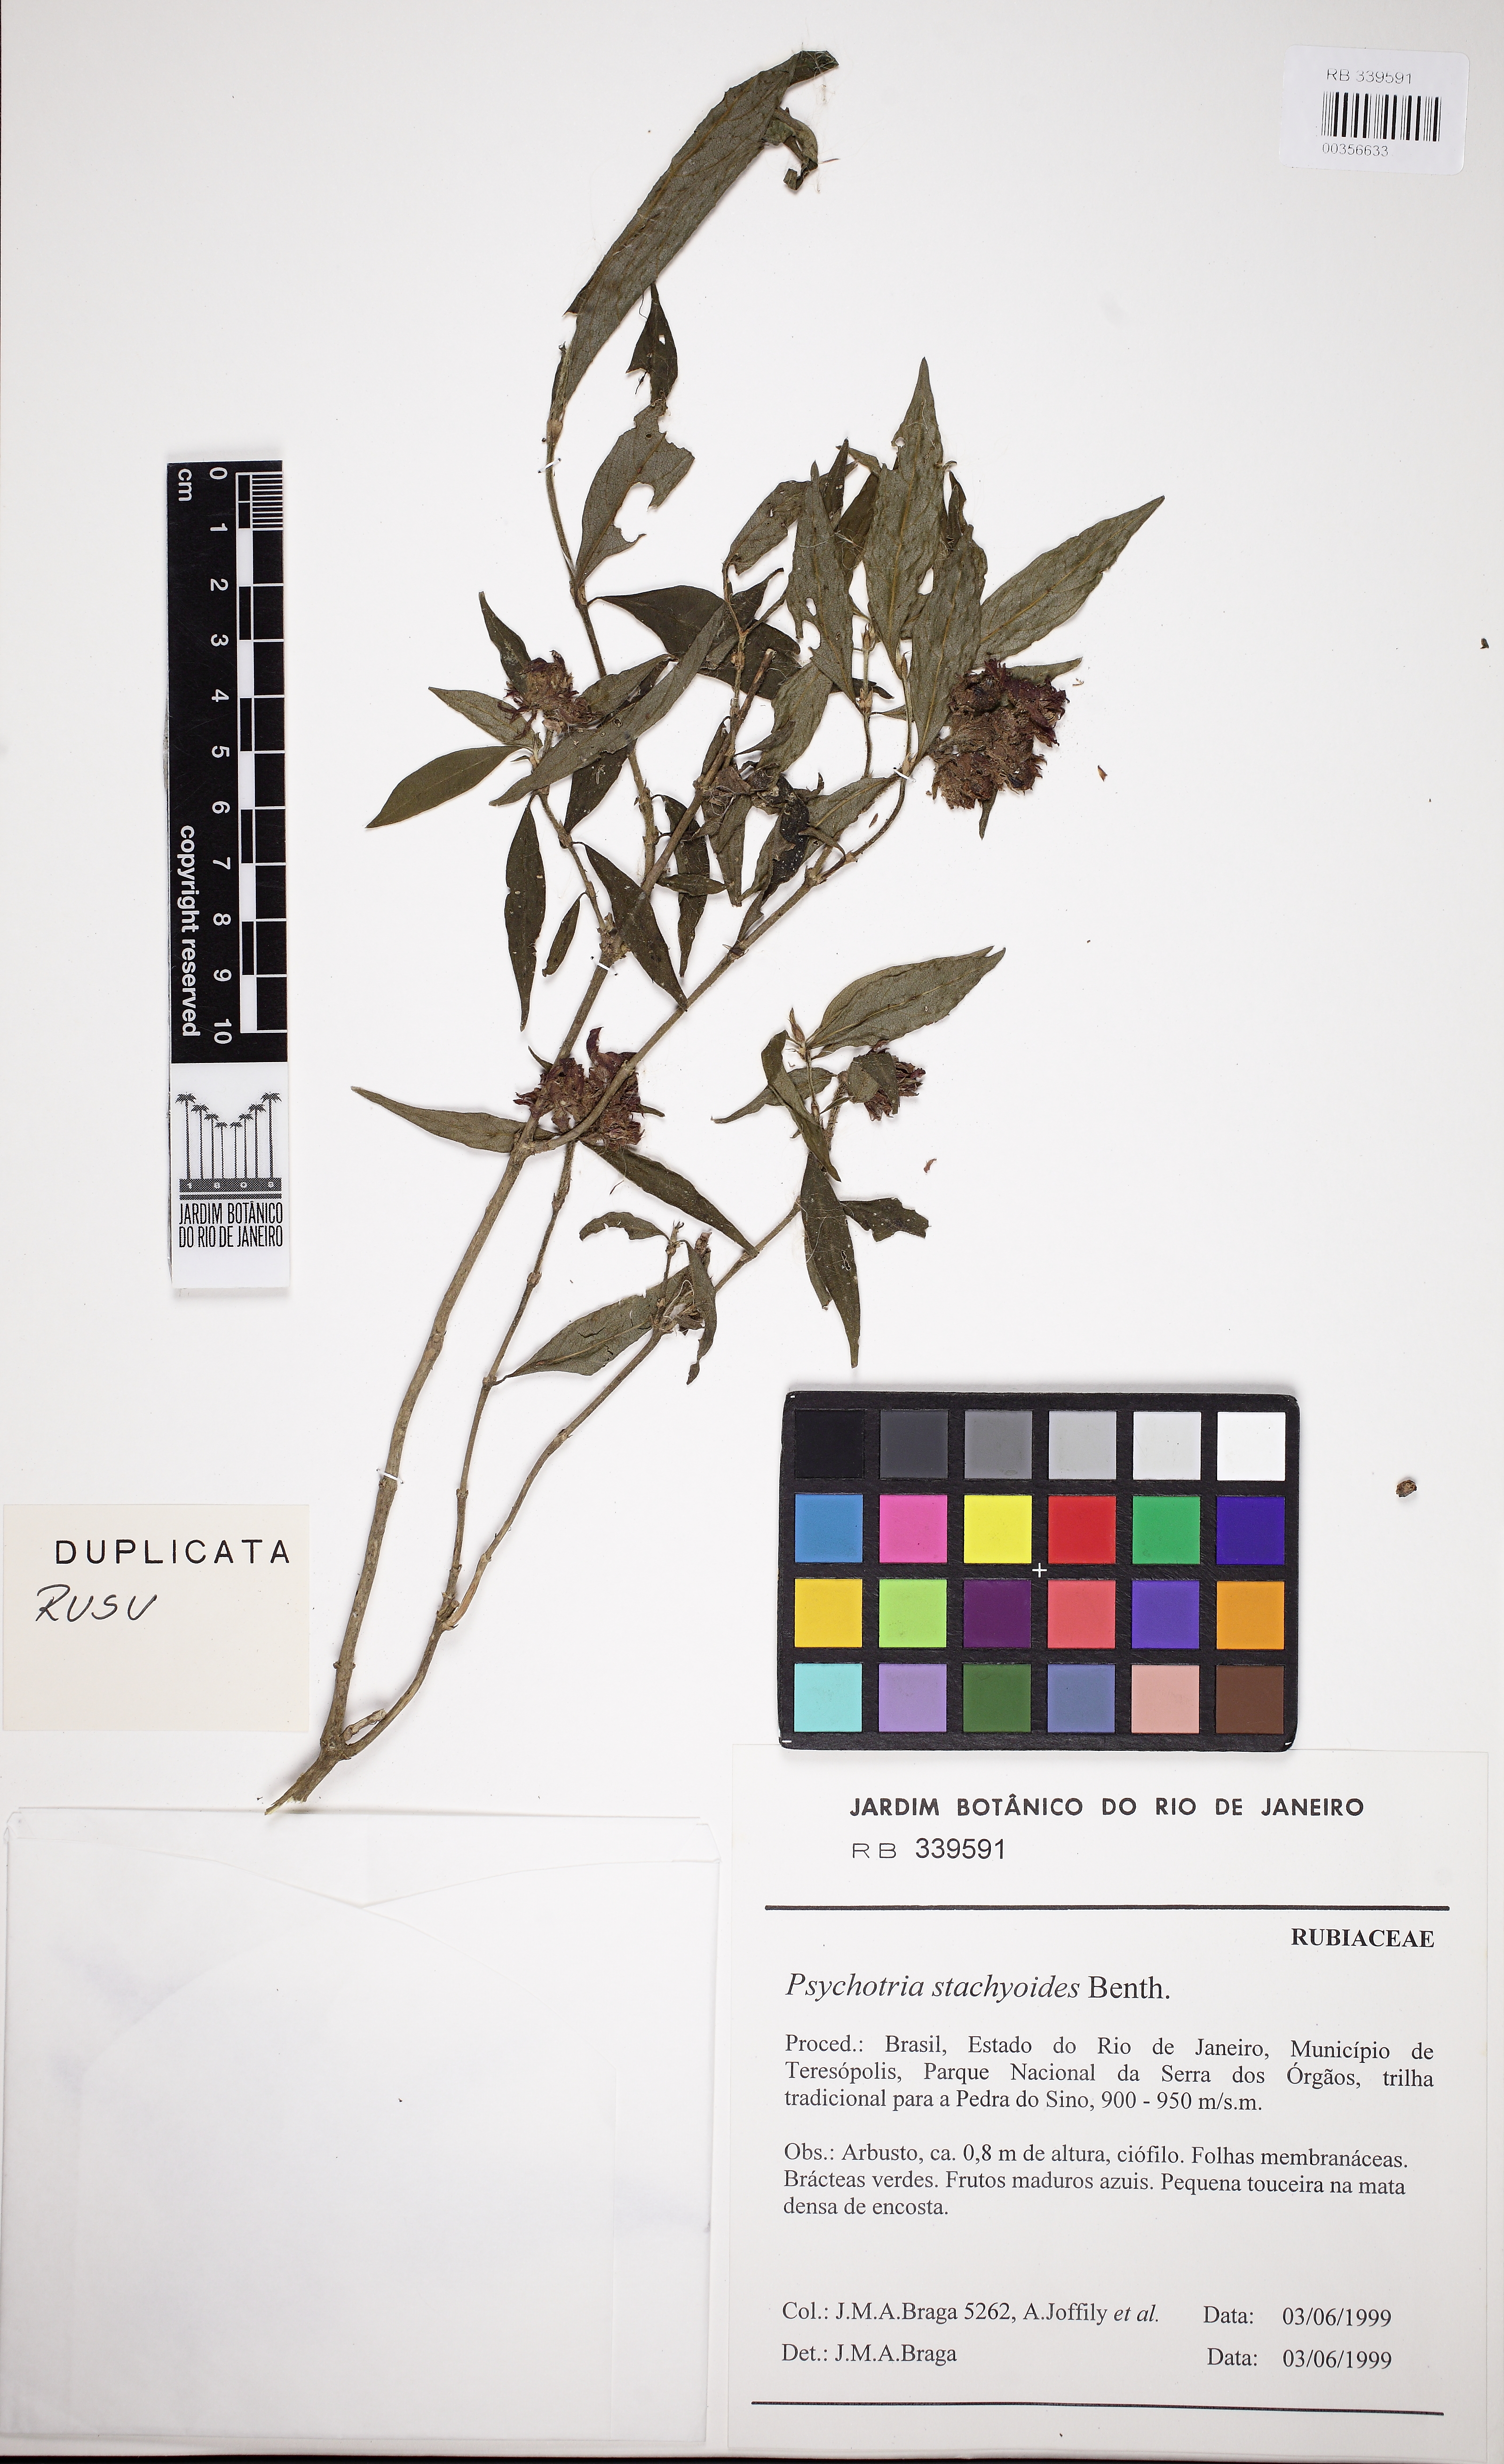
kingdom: Plantae
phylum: Tracheophyta
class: Magnoliopsida
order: Gentianales
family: Rubiaceae
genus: Psychotria
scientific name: Psychotria stachyoides
